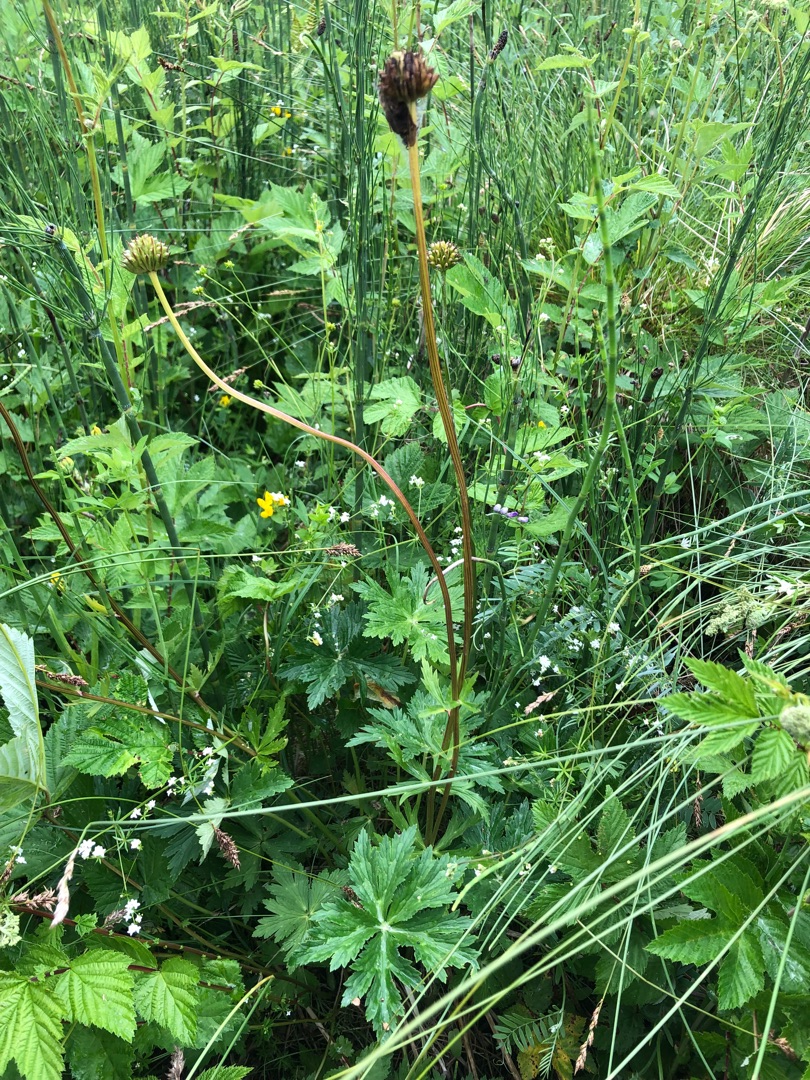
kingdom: Plantae
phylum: Tracheophyta
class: Magnoliopsida
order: Ranunculales
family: Ranunculaceae
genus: Trollius
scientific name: Trollius europaeus
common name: Engblomme
